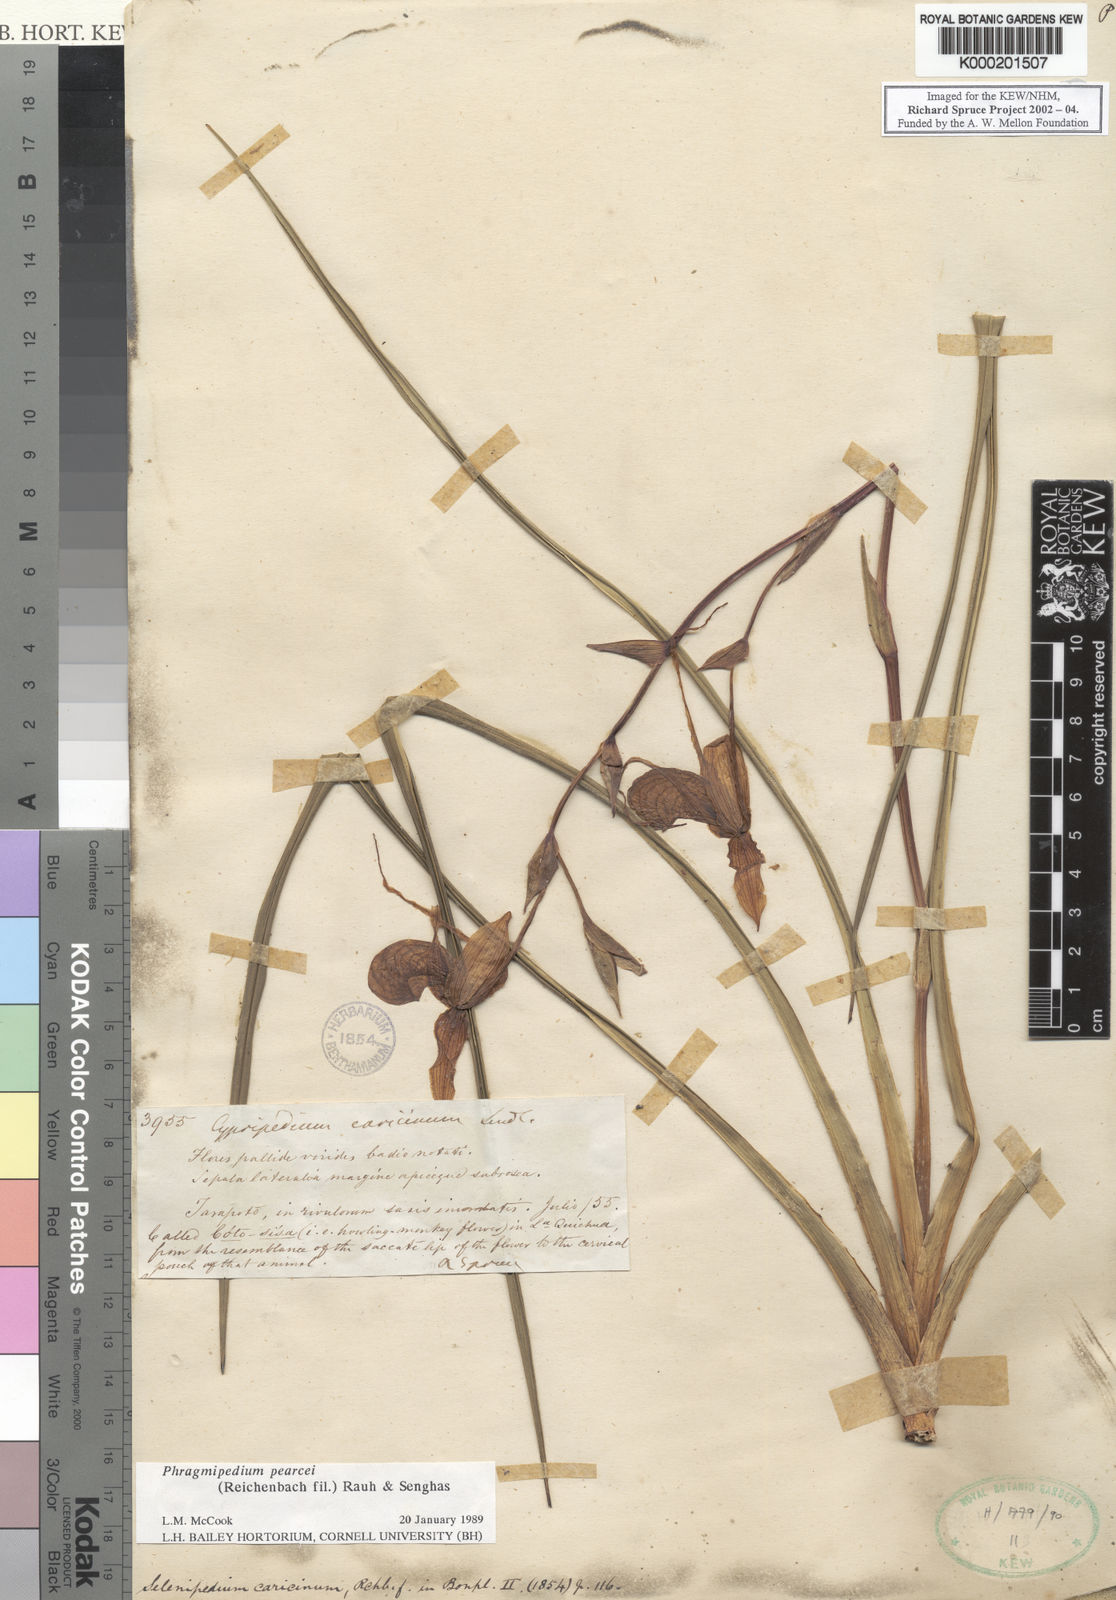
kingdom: Plantae
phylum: Tracheophyta
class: Liliopsida
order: Asparagales
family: Orchidaceae
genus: Phragmipedium
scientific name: Phragmipedium pearcei
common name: Pearce's phragmipedium
